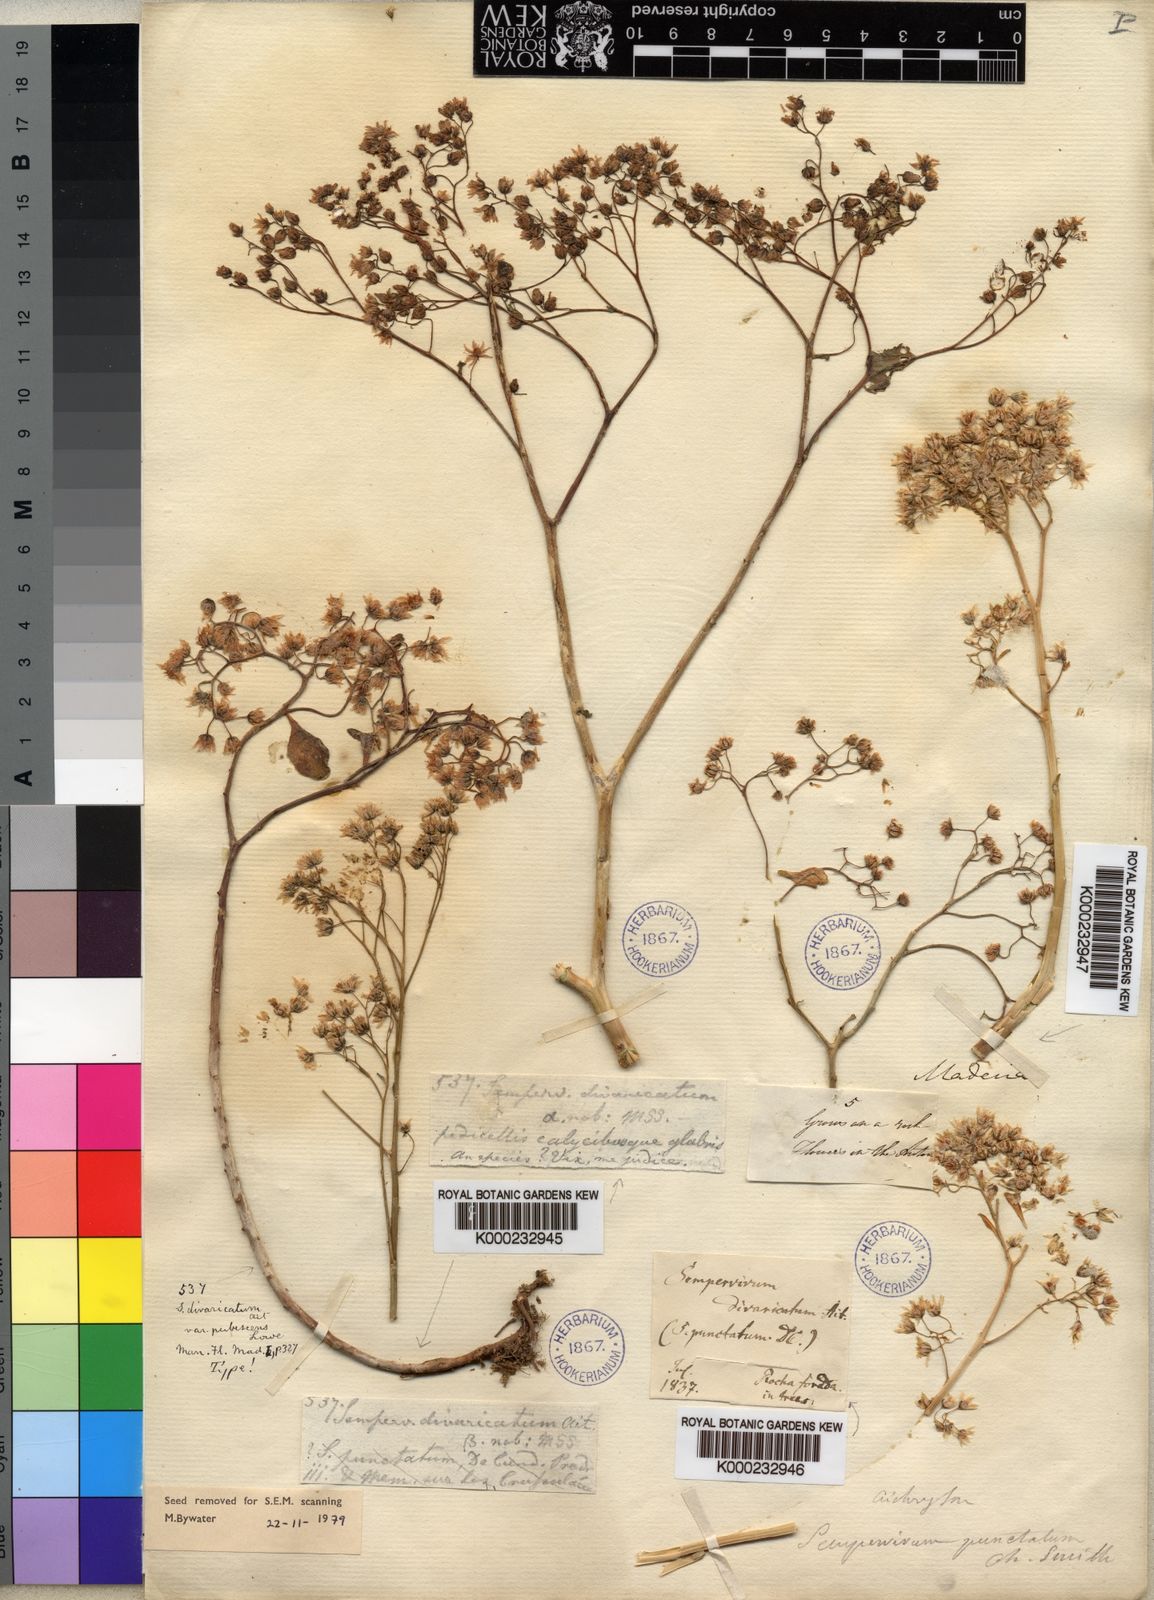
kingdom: Plantae
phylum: Tracheophyta
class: Magnoliopsida
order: Saxifragales
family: Crassulaceae
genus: Aichryson
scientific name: Aichryson divaricatum
